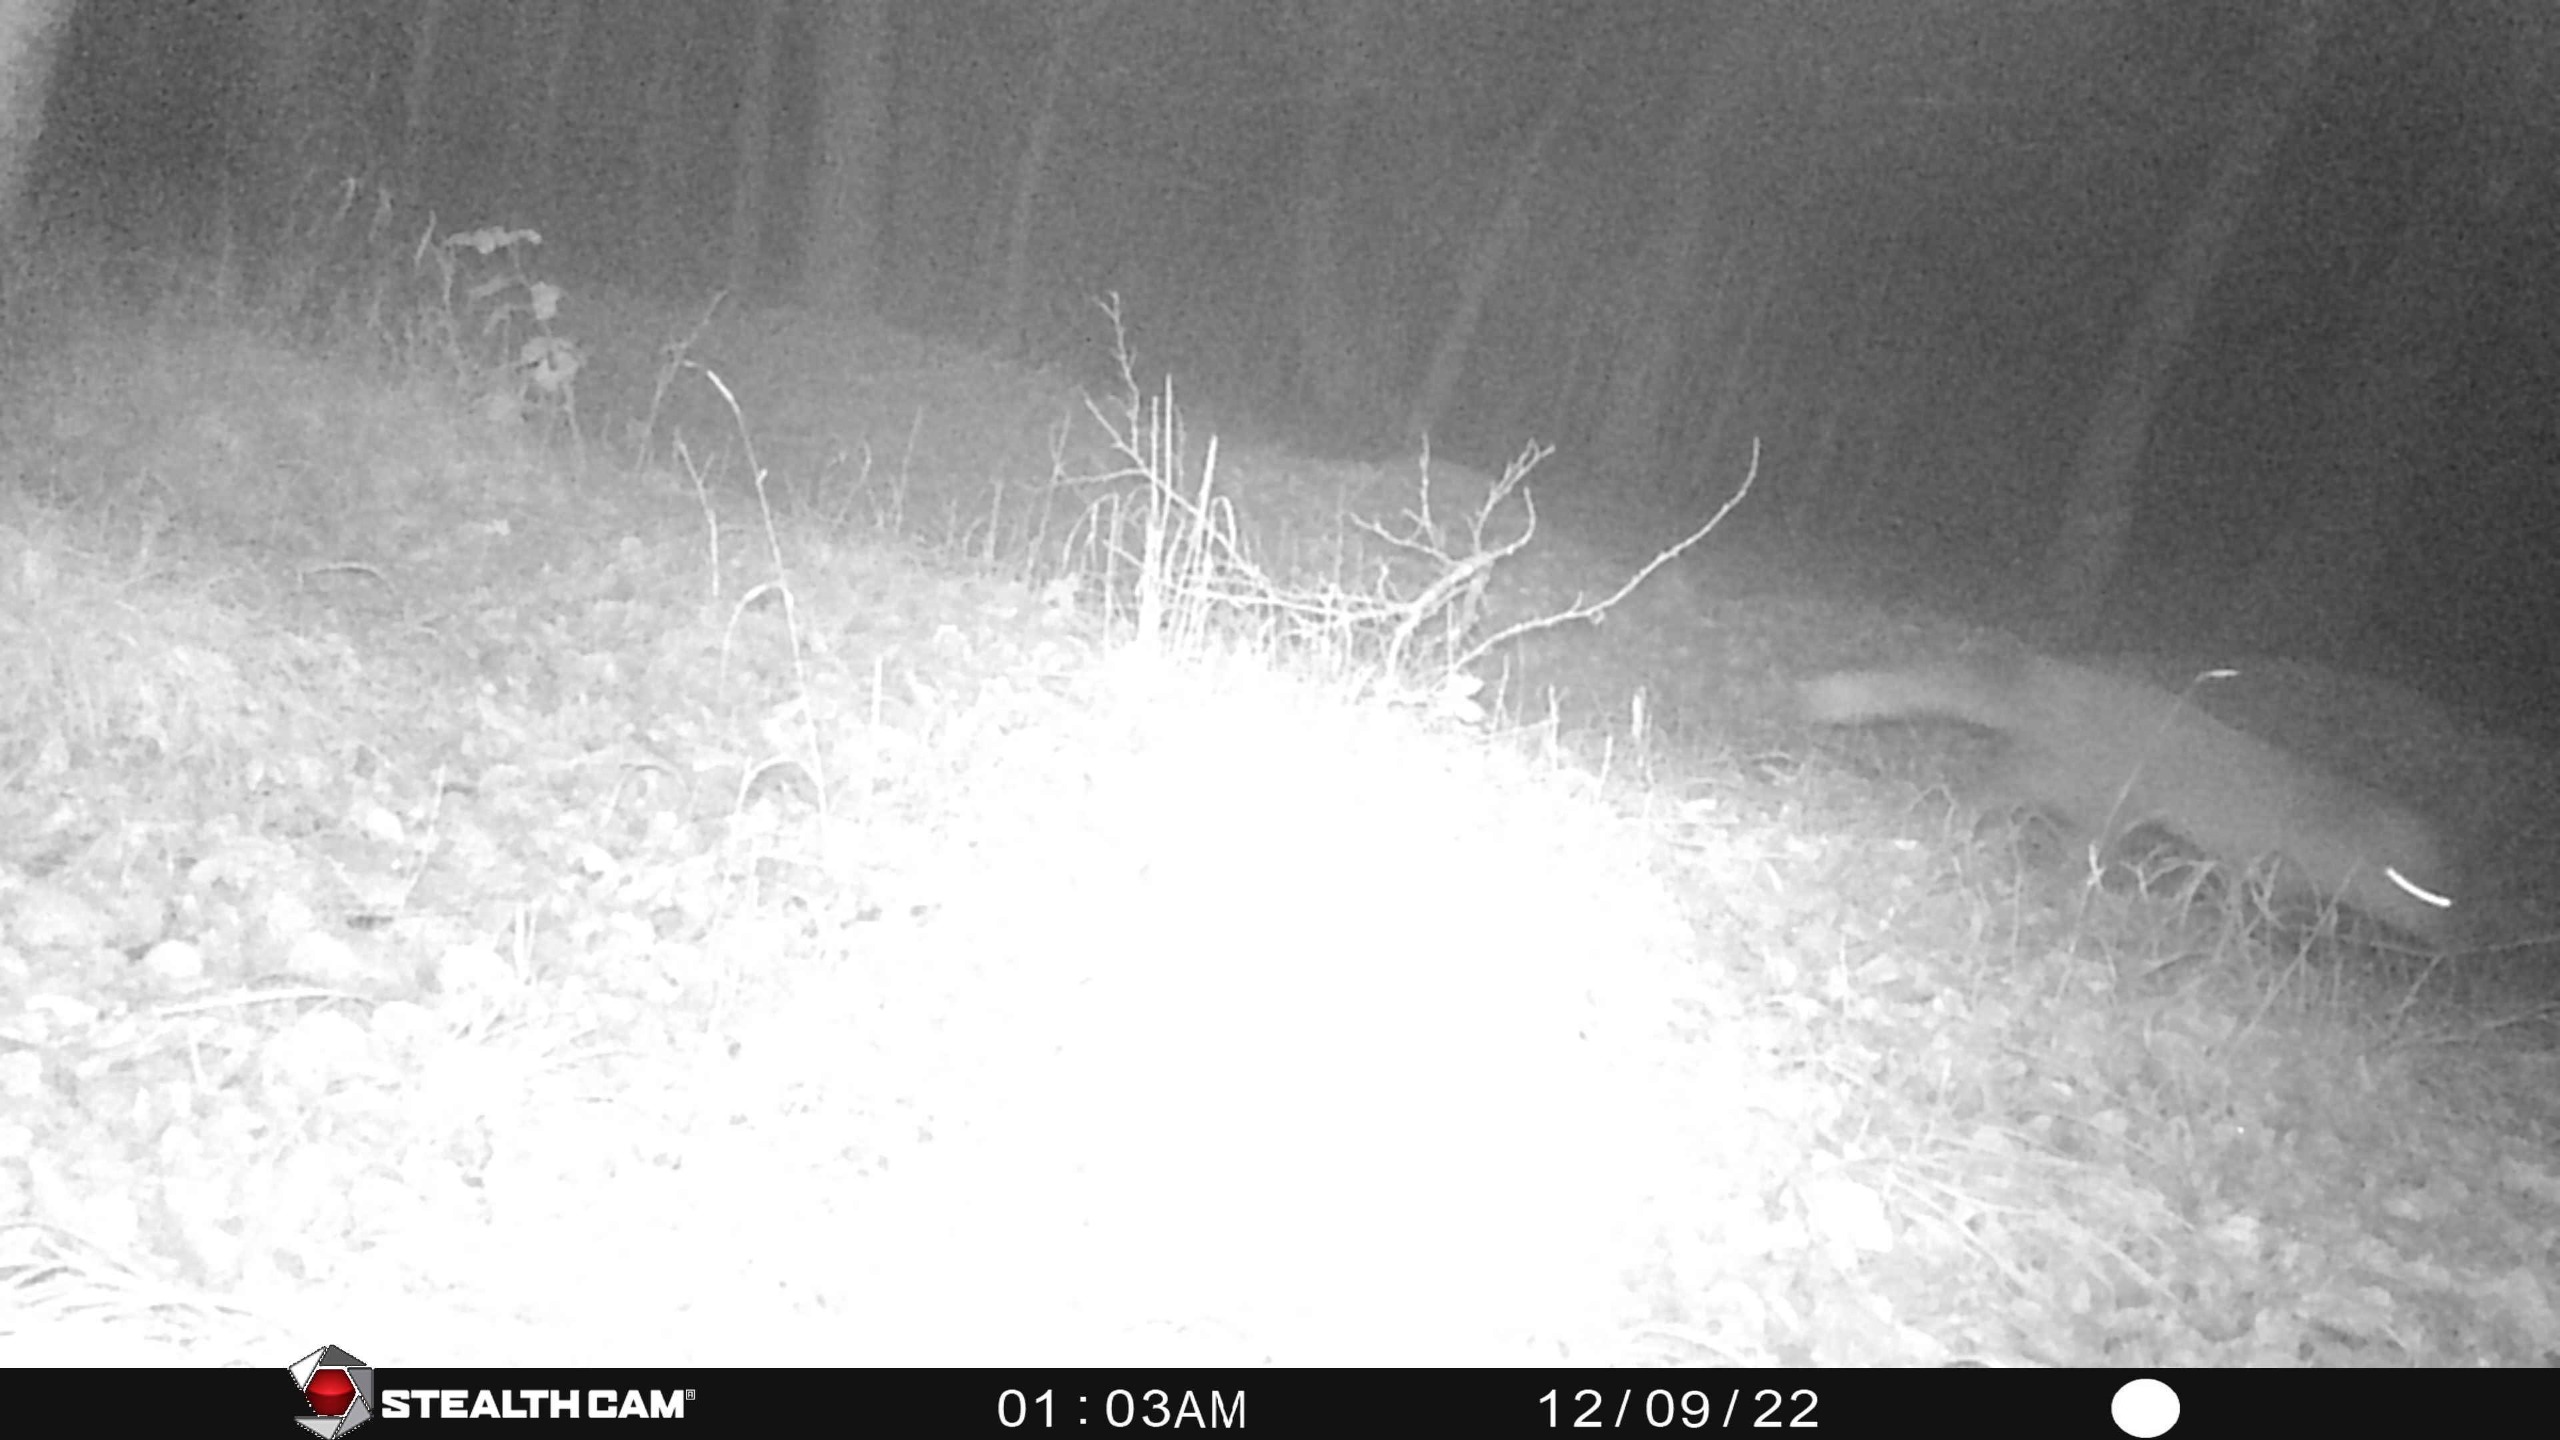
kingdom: Animalia
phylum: Chordata
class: Mammalia
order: Carnivora
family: Canidae
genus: Vulpes
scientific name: Vulpes vulpes
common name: Ræv
